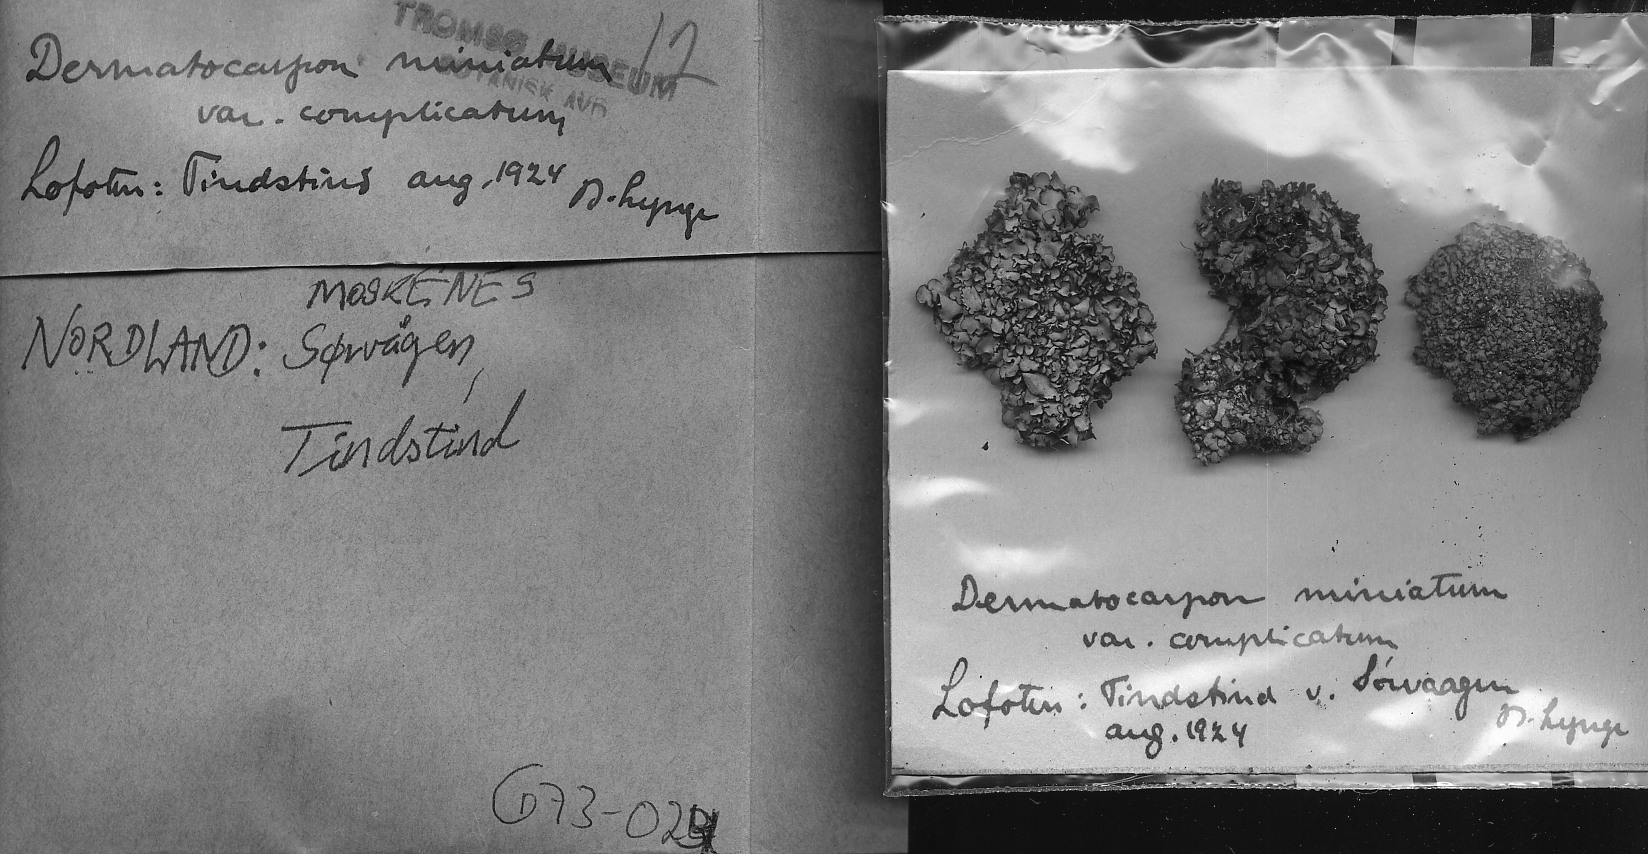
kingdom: Fungi
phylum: Ascomycota
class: Eurotiomycetes
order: Verrucariales
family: Verrucariaceae
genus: Dermatocarpon
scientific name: Dermatocarpon miniatum
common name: Leather lichen
